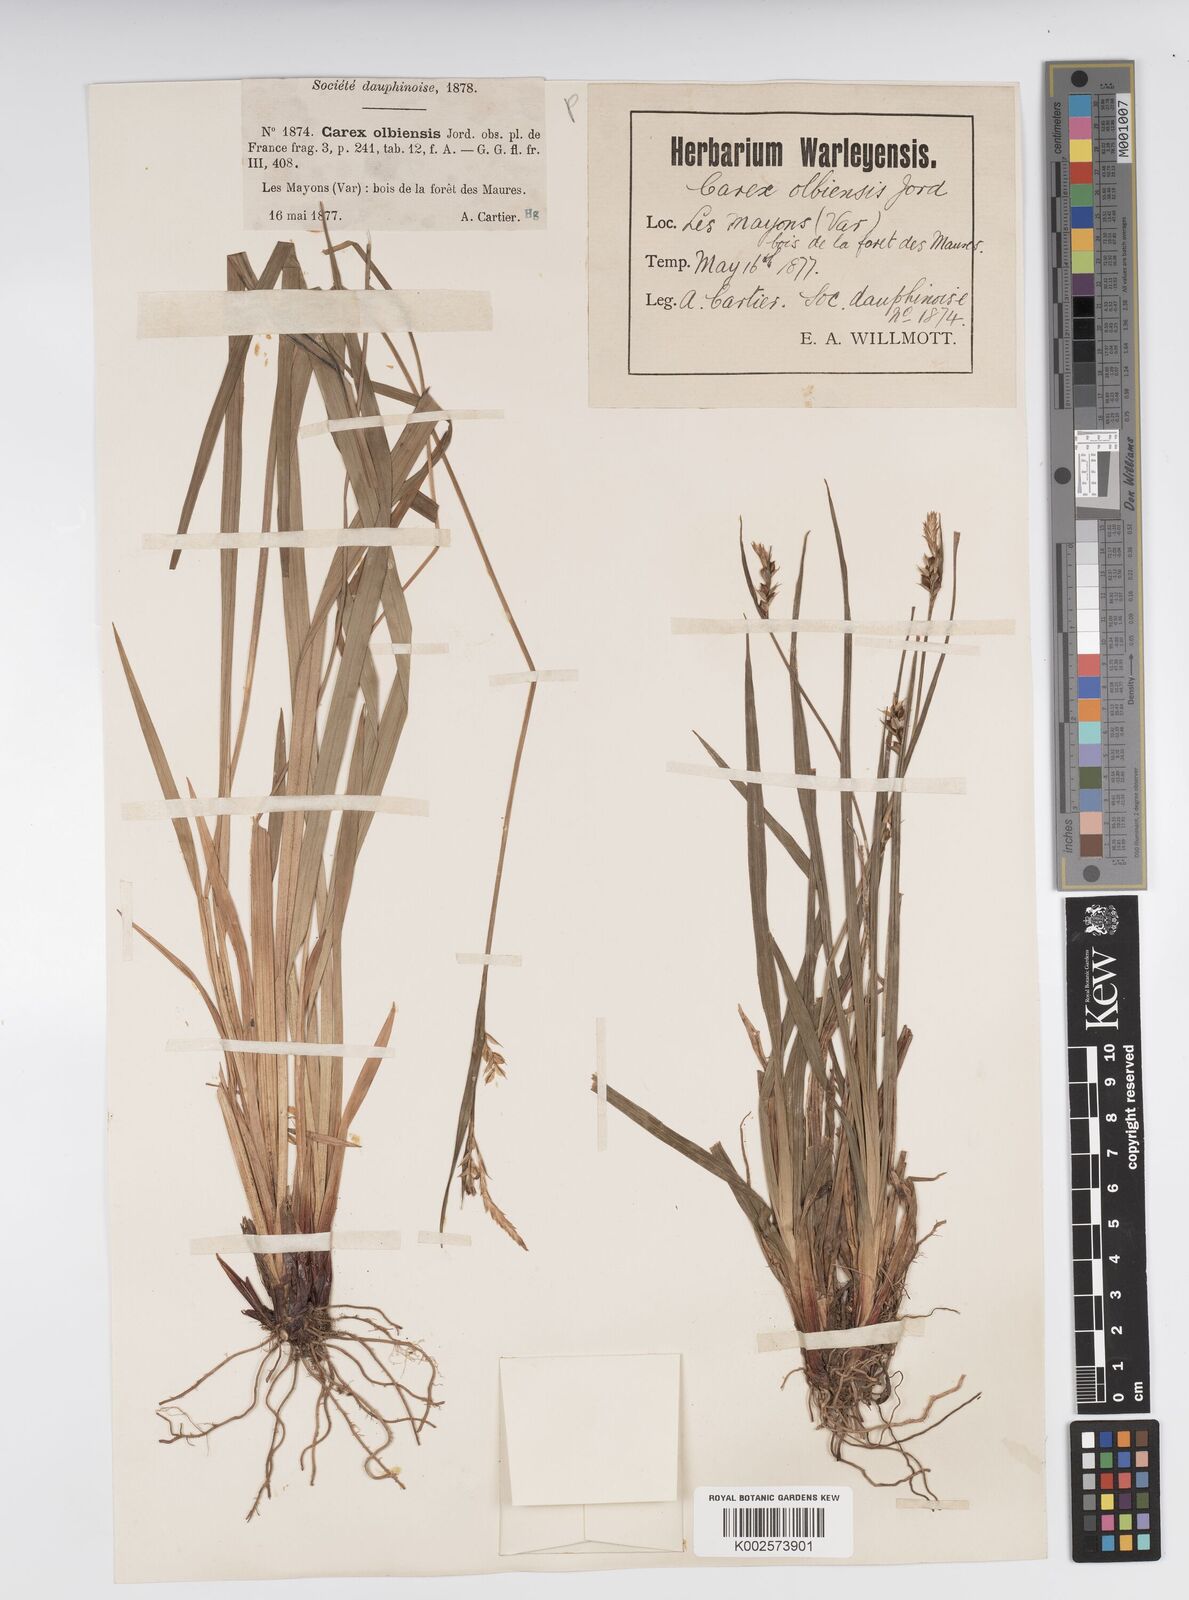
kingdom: Plantae
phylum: Tracheophyta
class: Liliopsida
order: Poales
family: Cyperaceae
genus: Carex
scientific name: Carex olbiensis
